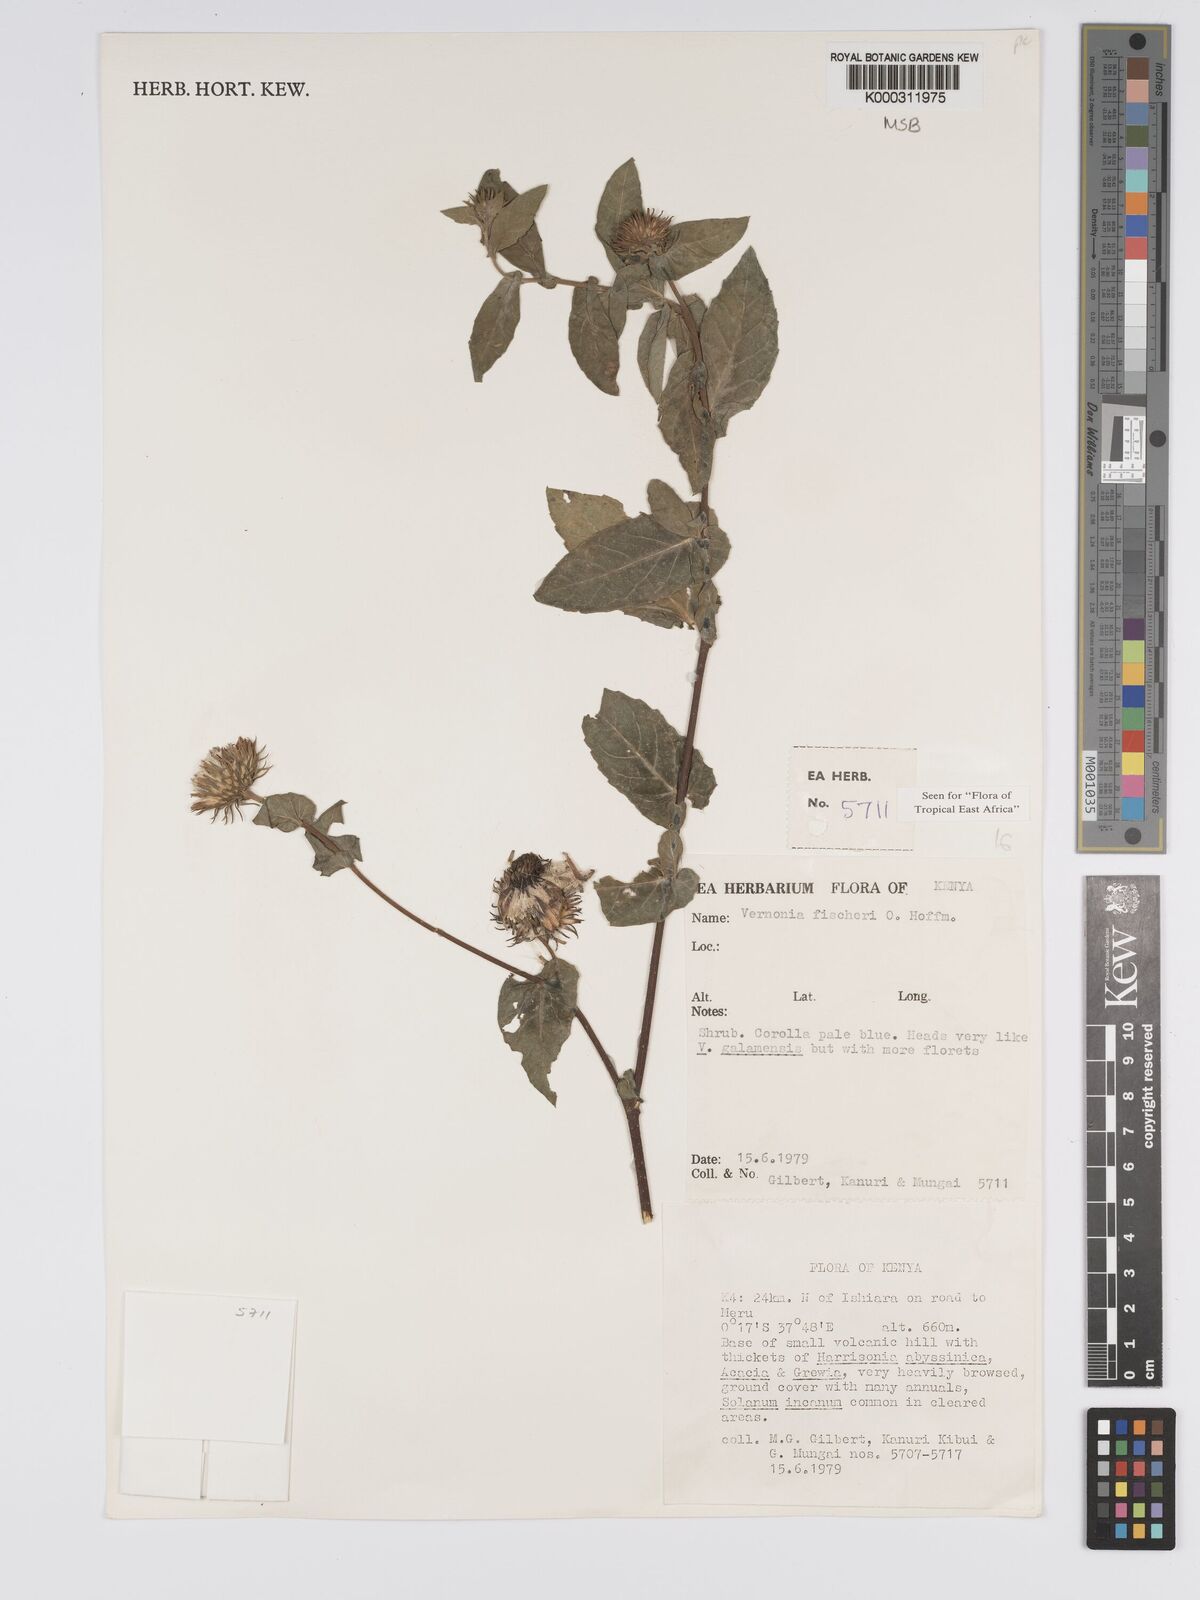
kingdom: Plantae
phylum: Tracheophyta
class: Magnoliopsida
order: Asterales
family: Asteraceae
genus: Vernonia
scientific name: Vernonia fischeri
